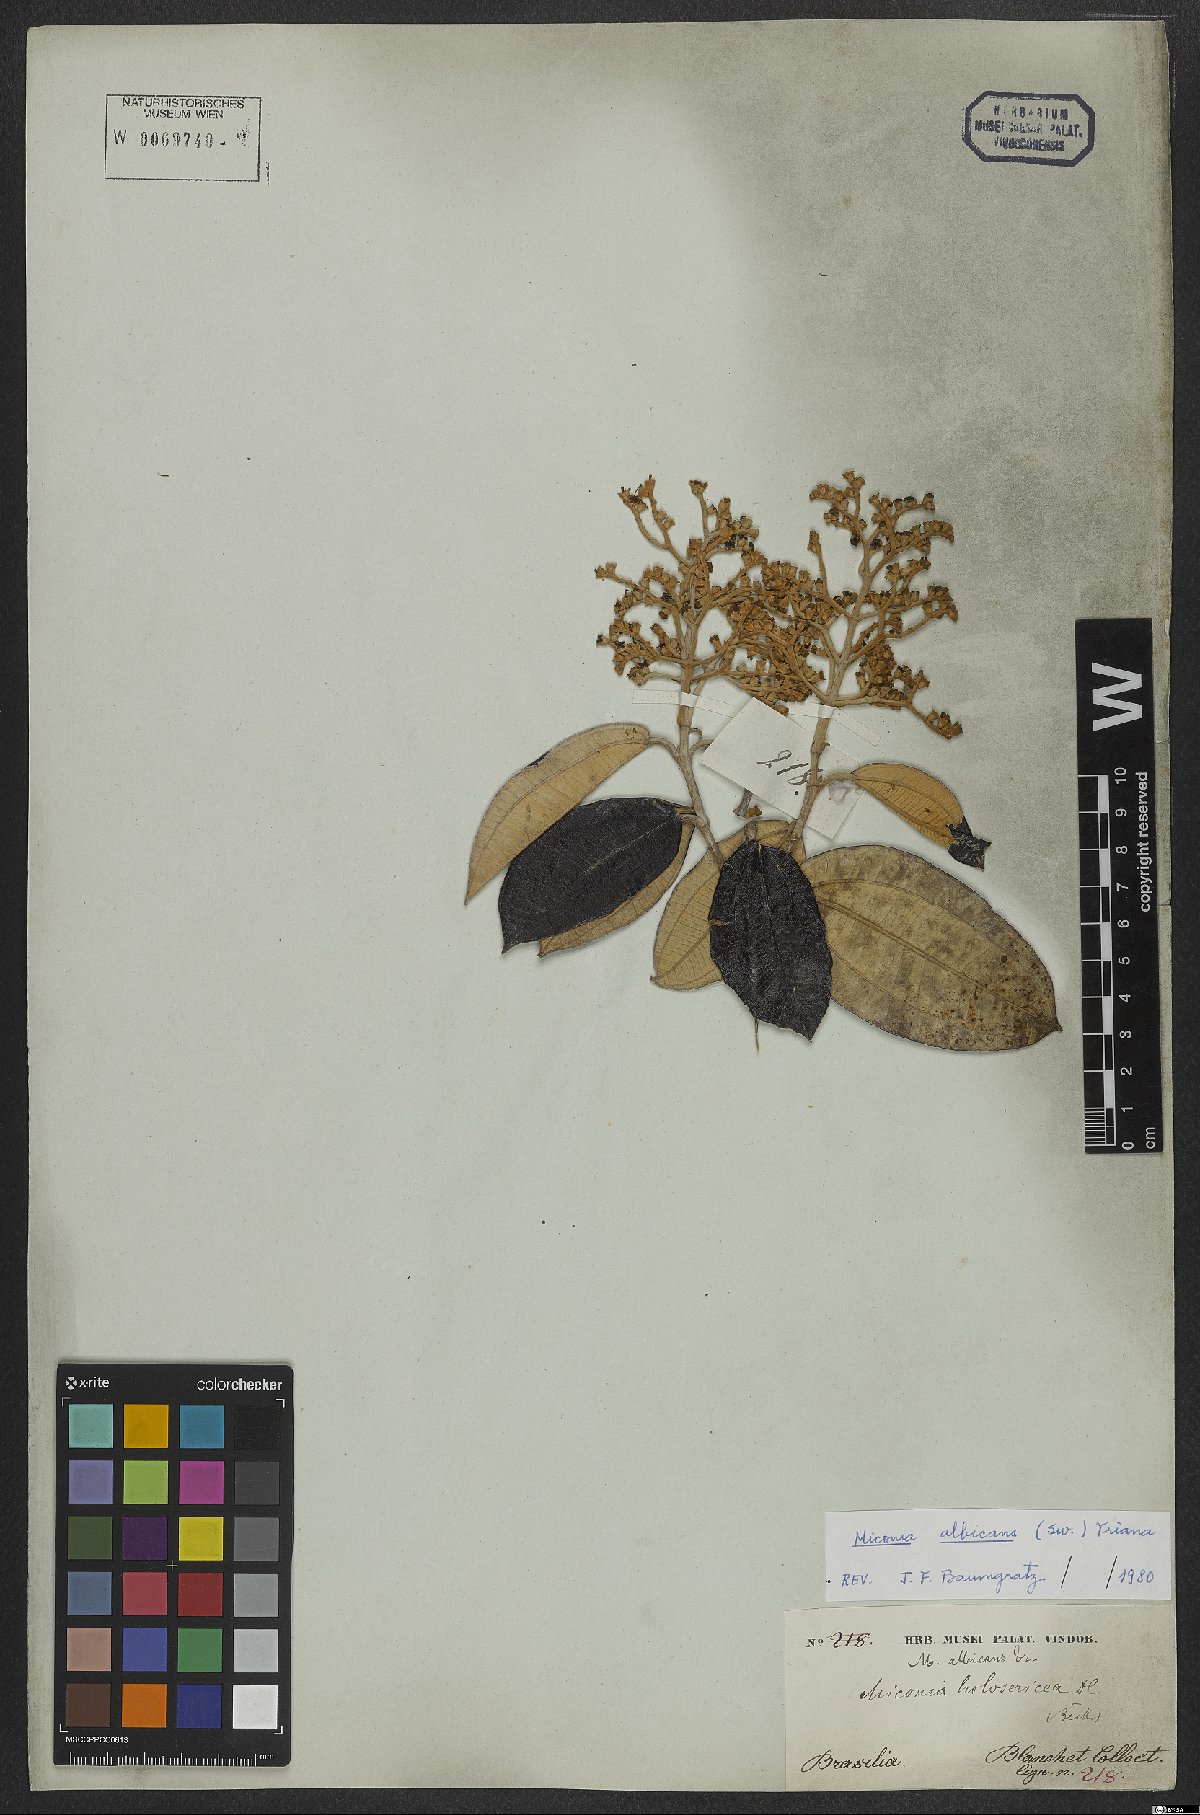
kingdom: Plantae
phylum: Tracheophyta
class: Magnoliopsida
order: Myrtales
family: Melastomataceae
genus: Miconia
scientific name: Miconia albicans
